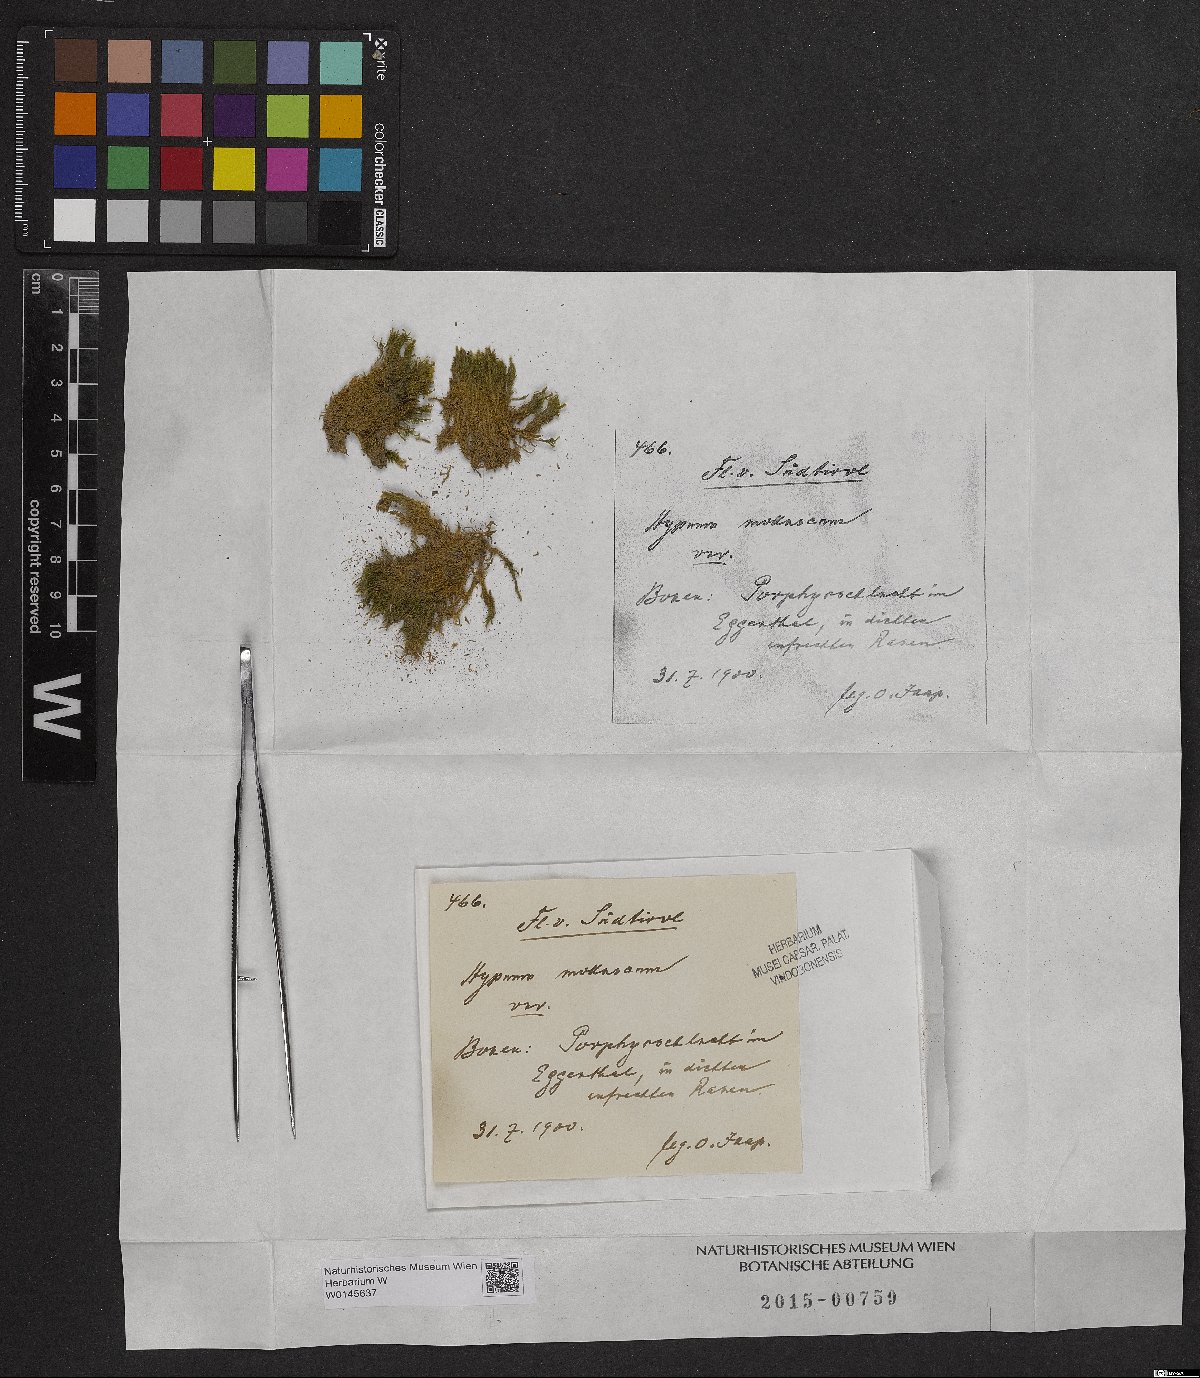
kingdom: Plantae
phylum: Bryophyta
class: Bryopsida
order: Hypnales
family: Myuriaceae
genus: Ctenidium
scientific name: Ctenidium molluscum
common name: Chalk comb-moss
